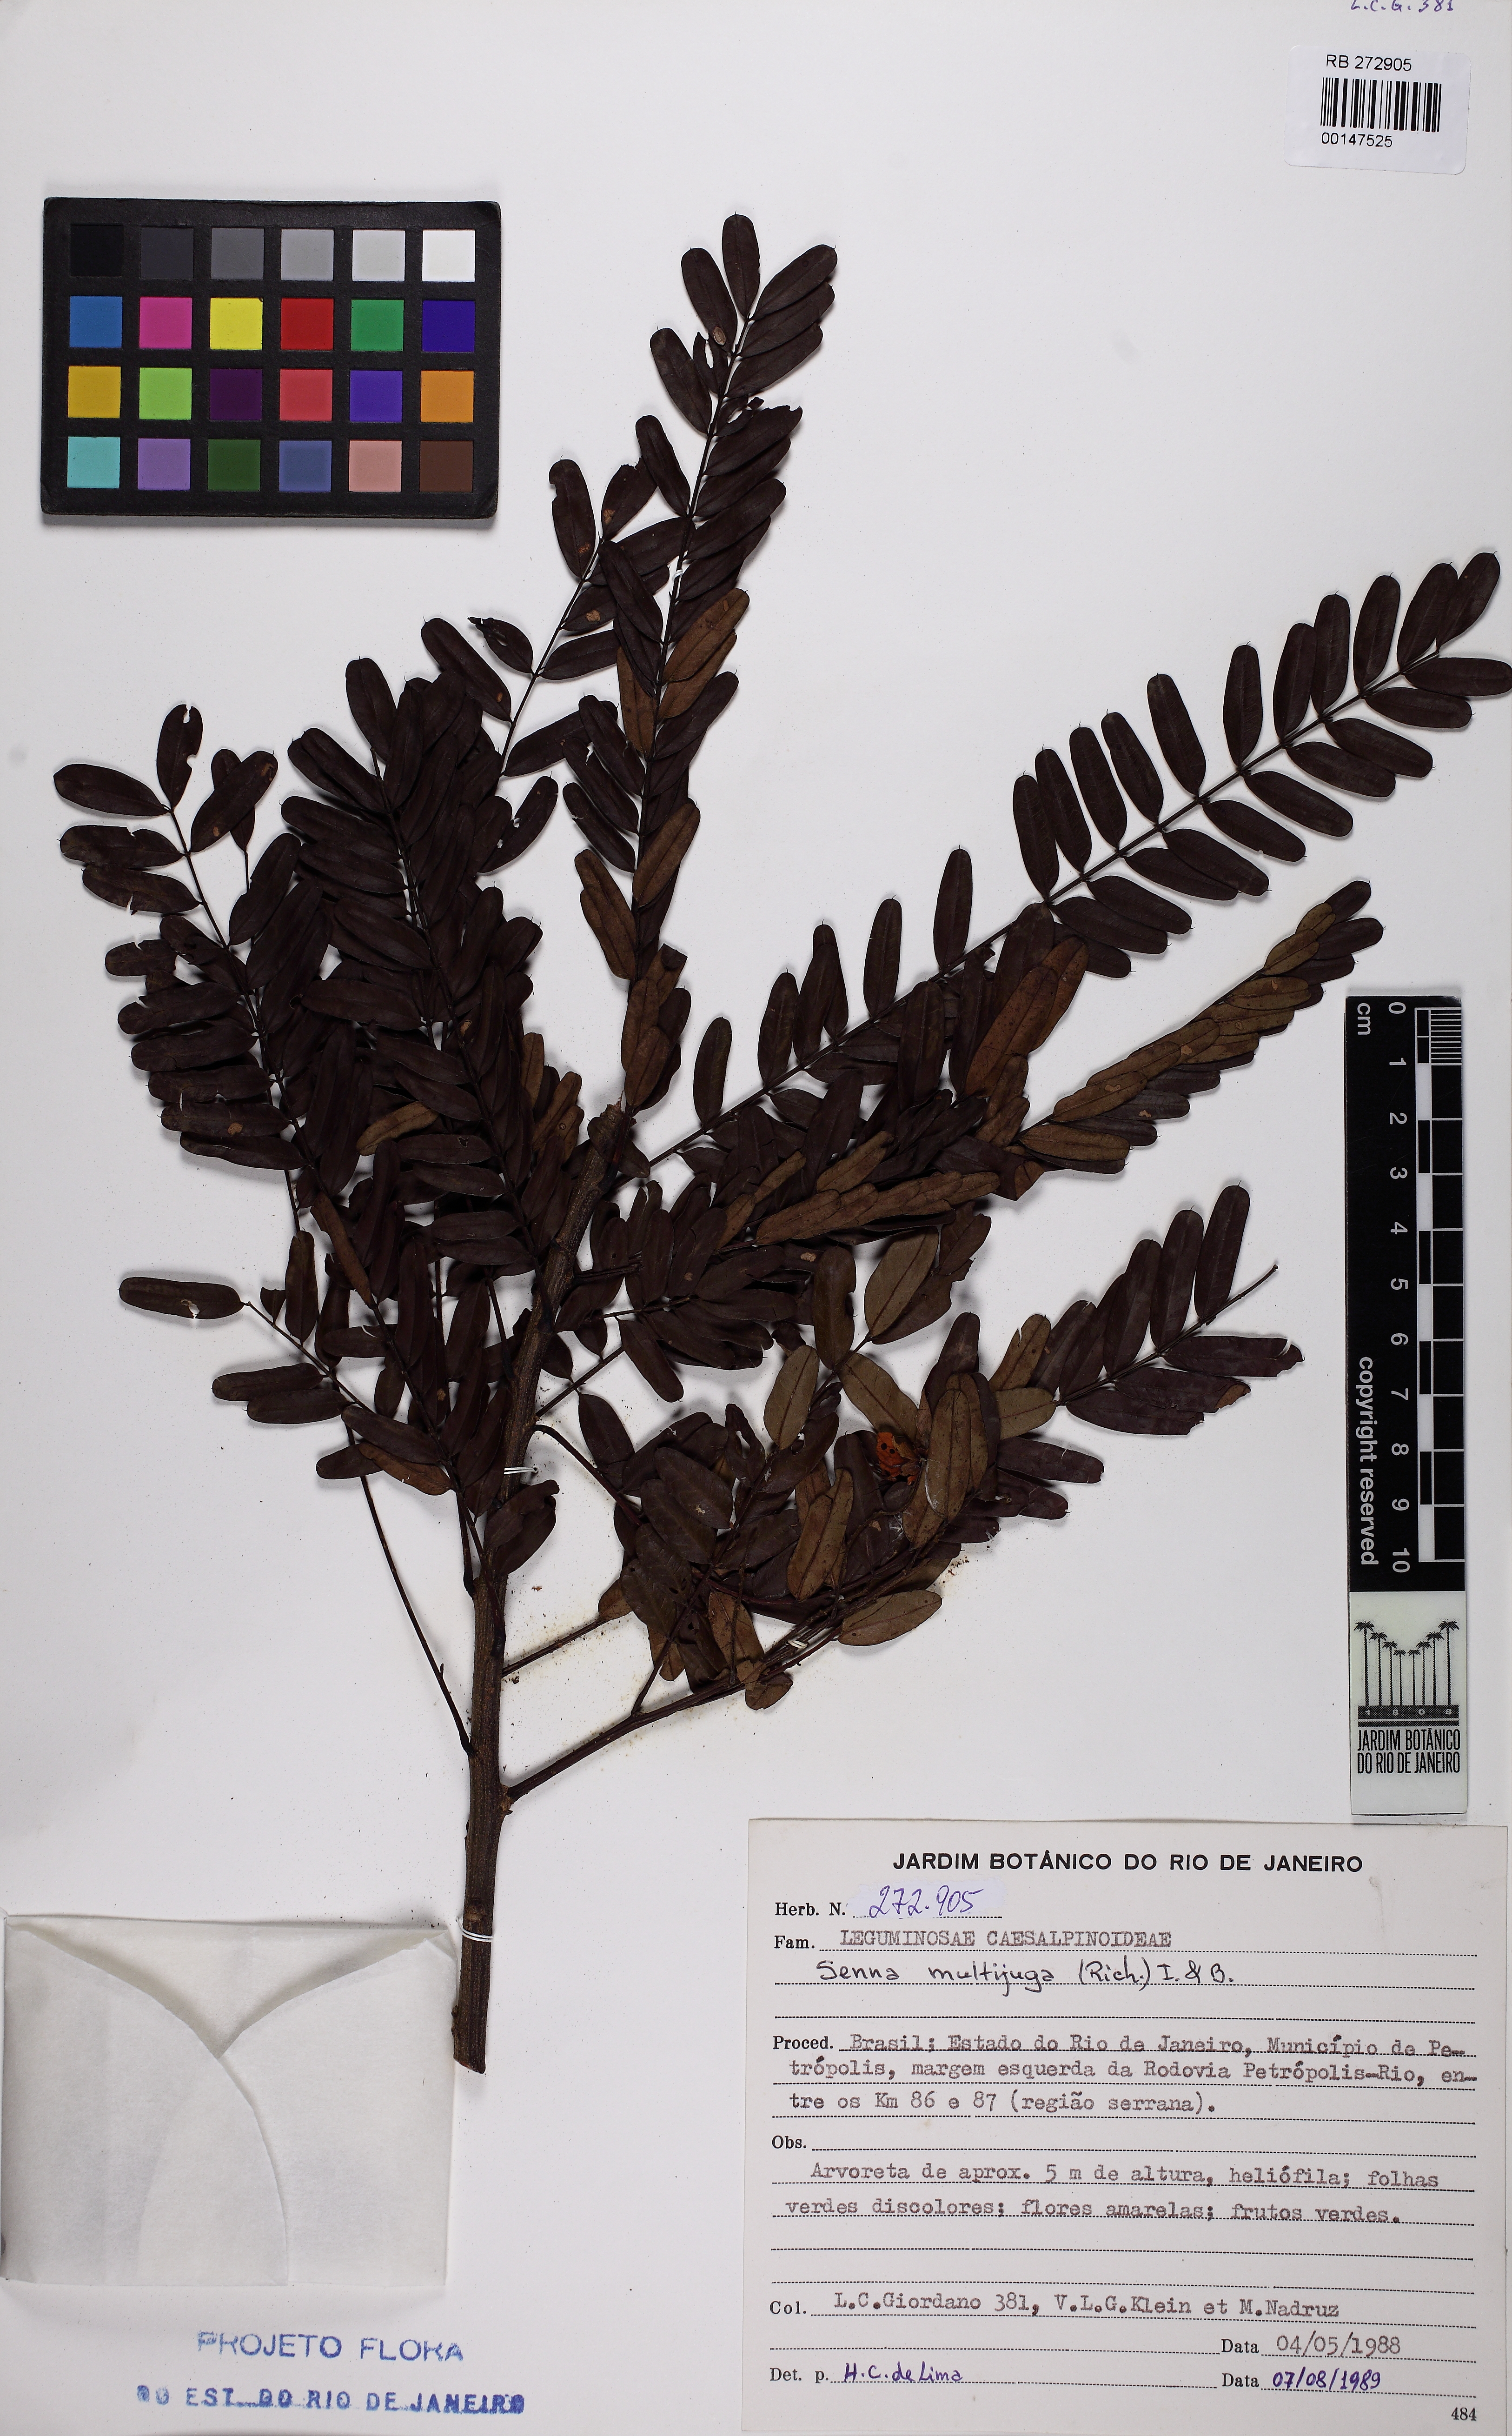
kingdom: Plantae
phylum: Tracheophyta
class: Magnoliopsida
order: Fabales
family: Fabaceae
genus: Senna
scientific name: Senna multijuga
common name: False sicklepod
